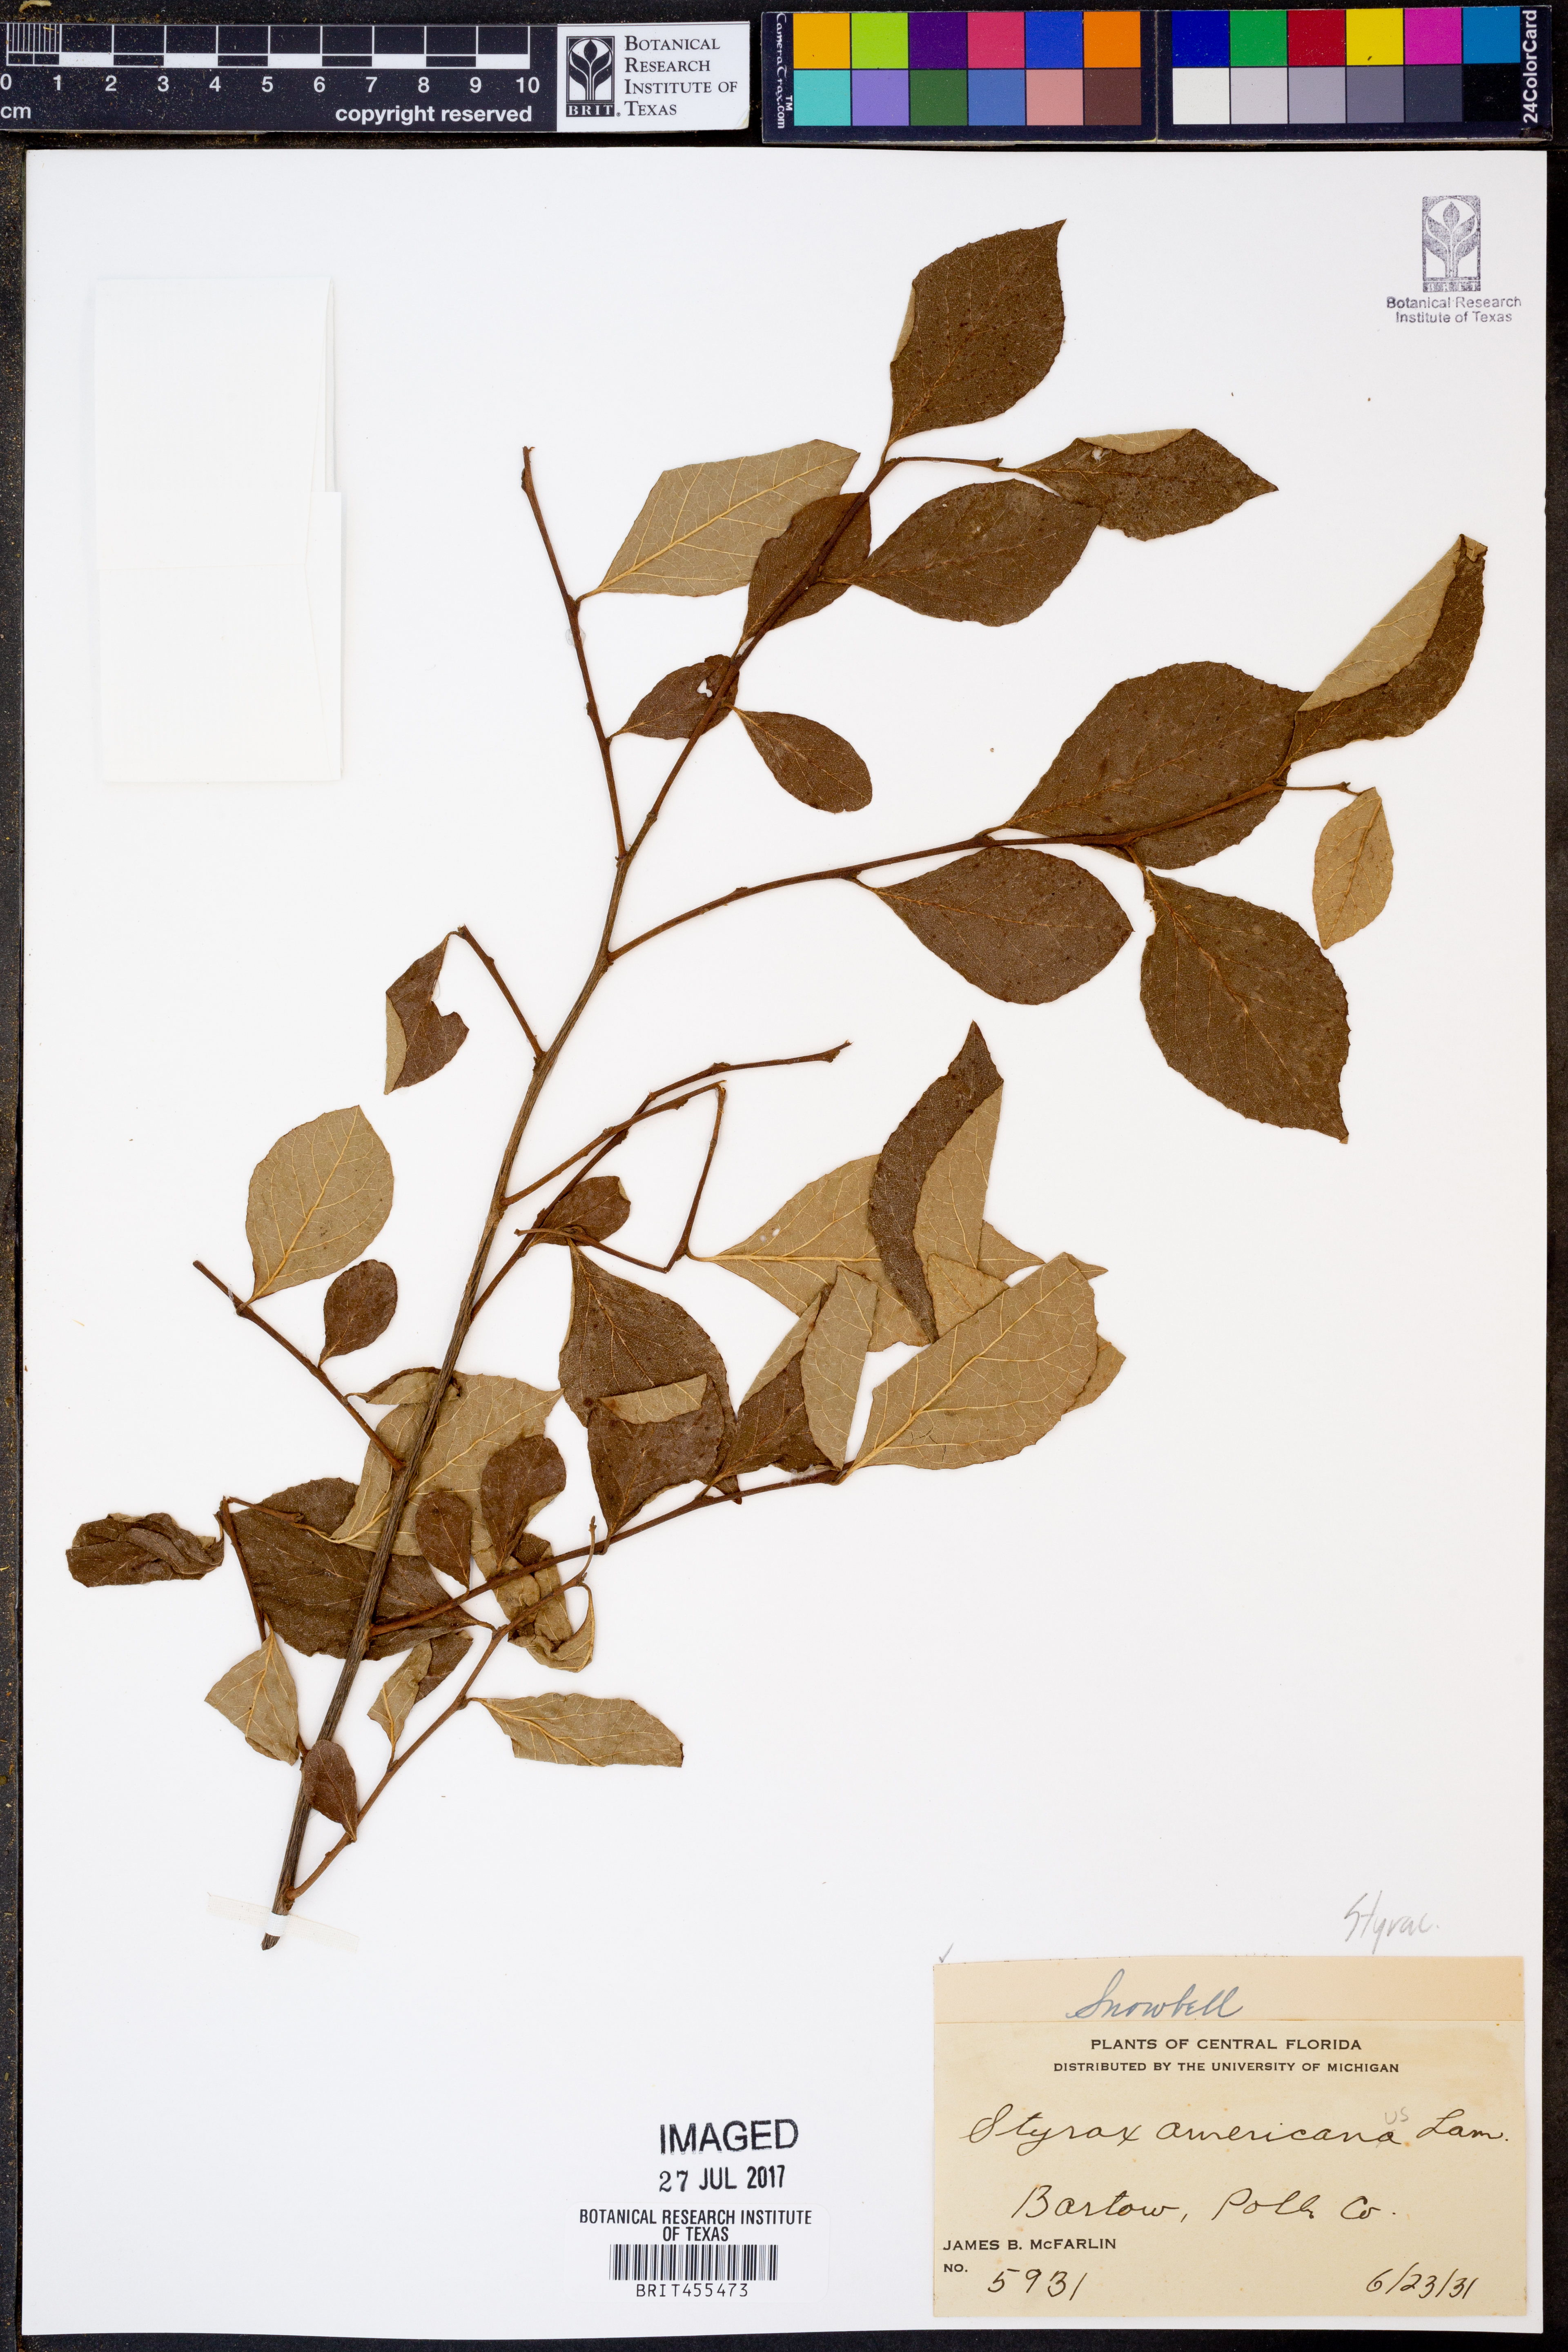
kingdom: Plantae
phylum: Tracheophyta
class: Magnoliopsida
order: Ericales
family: Styracaceae
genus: Styrax
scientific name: Styrax americanus
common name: American snowbell
